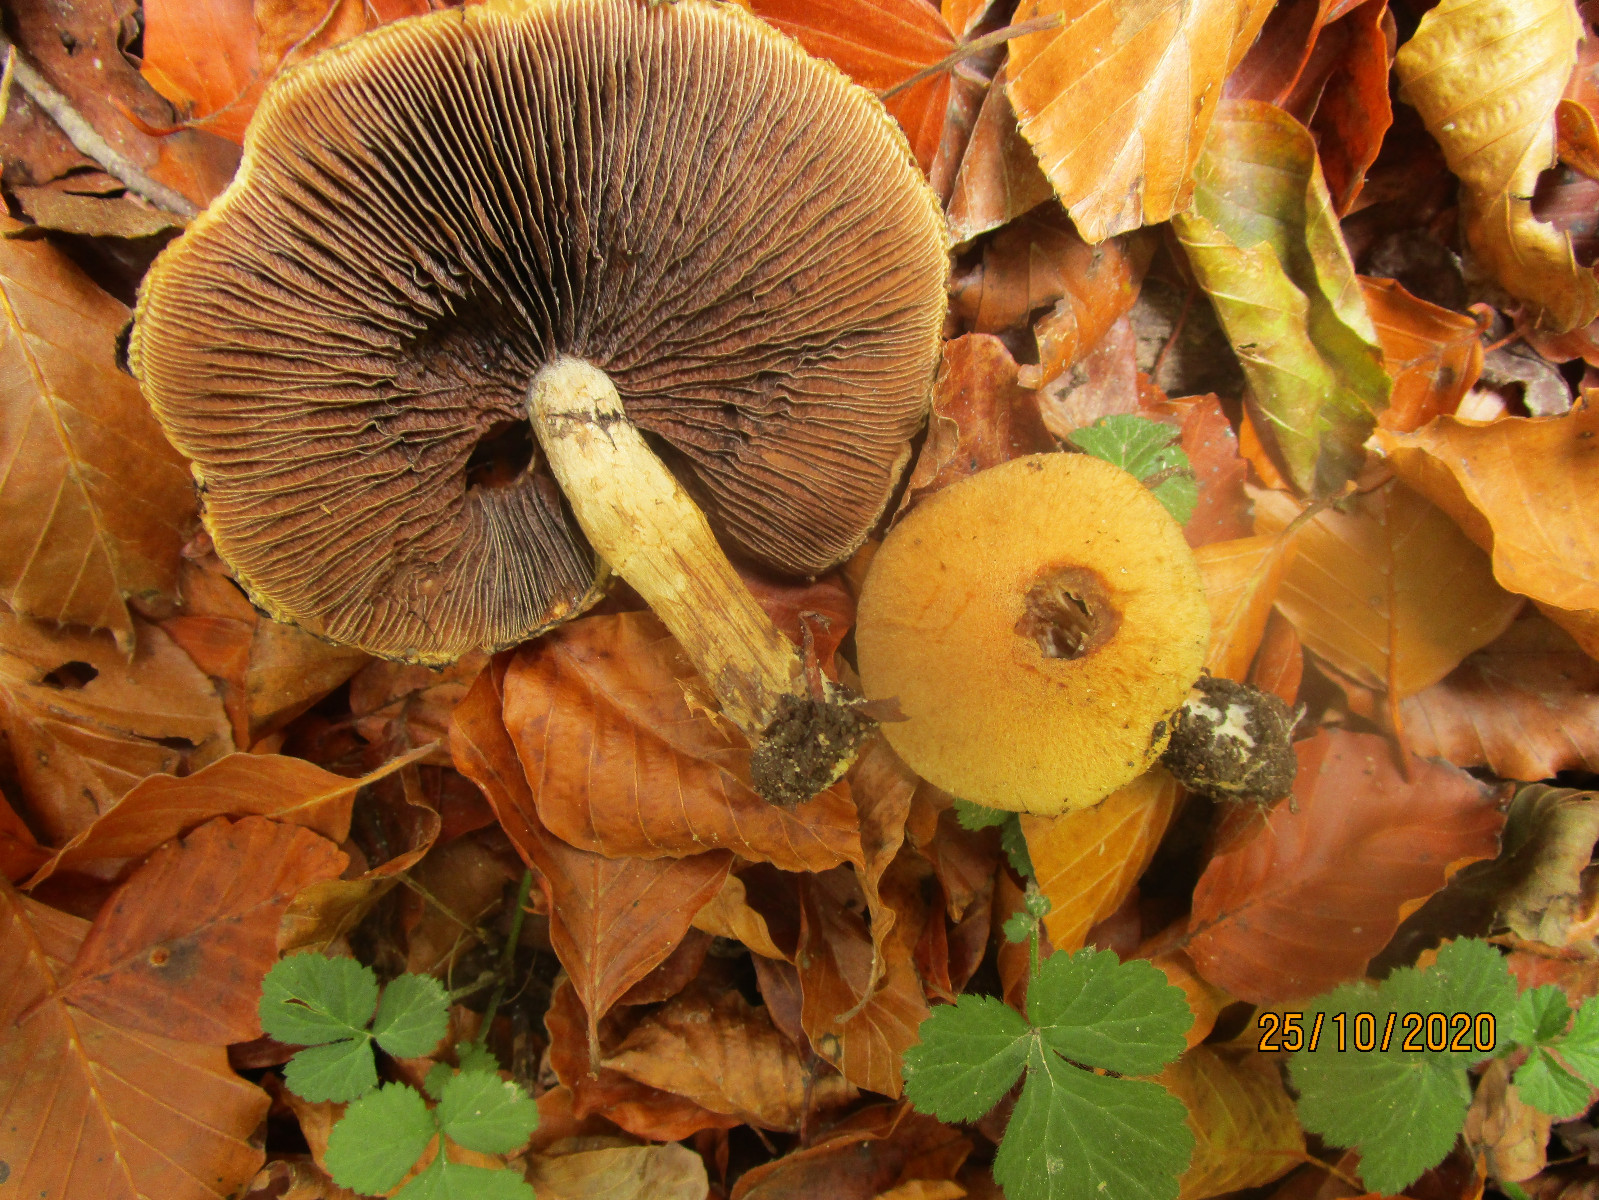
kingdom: Fungi
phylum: Basidiomycota
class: Agaricomycetes
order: Agaricales
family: Psathyrellaceae
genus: Lacrymaria
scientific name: Lacrymaria lacrymabunda
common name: grædende mørkhat
